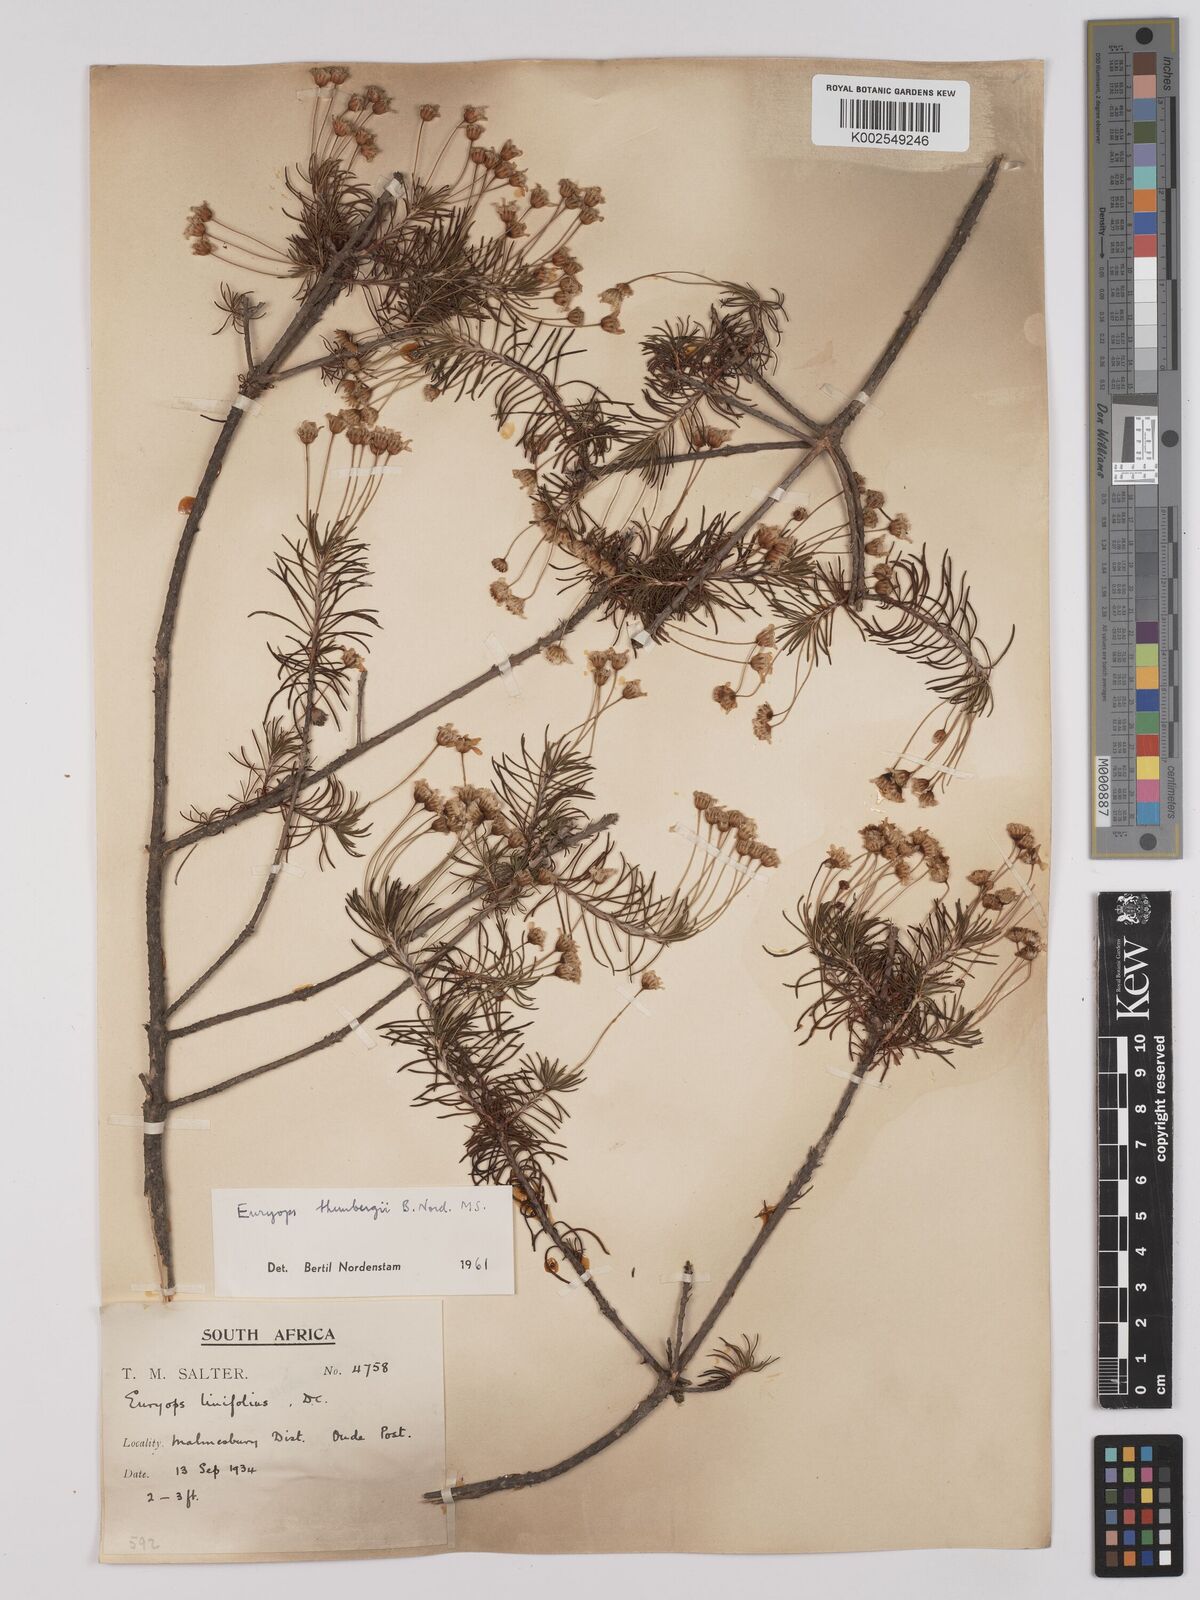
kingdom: Plantae
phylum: Tracheophyta
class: Magnoliopsida
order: Asterales
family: Asteraceae
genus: Euryops
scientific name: Euryops thunbergii
